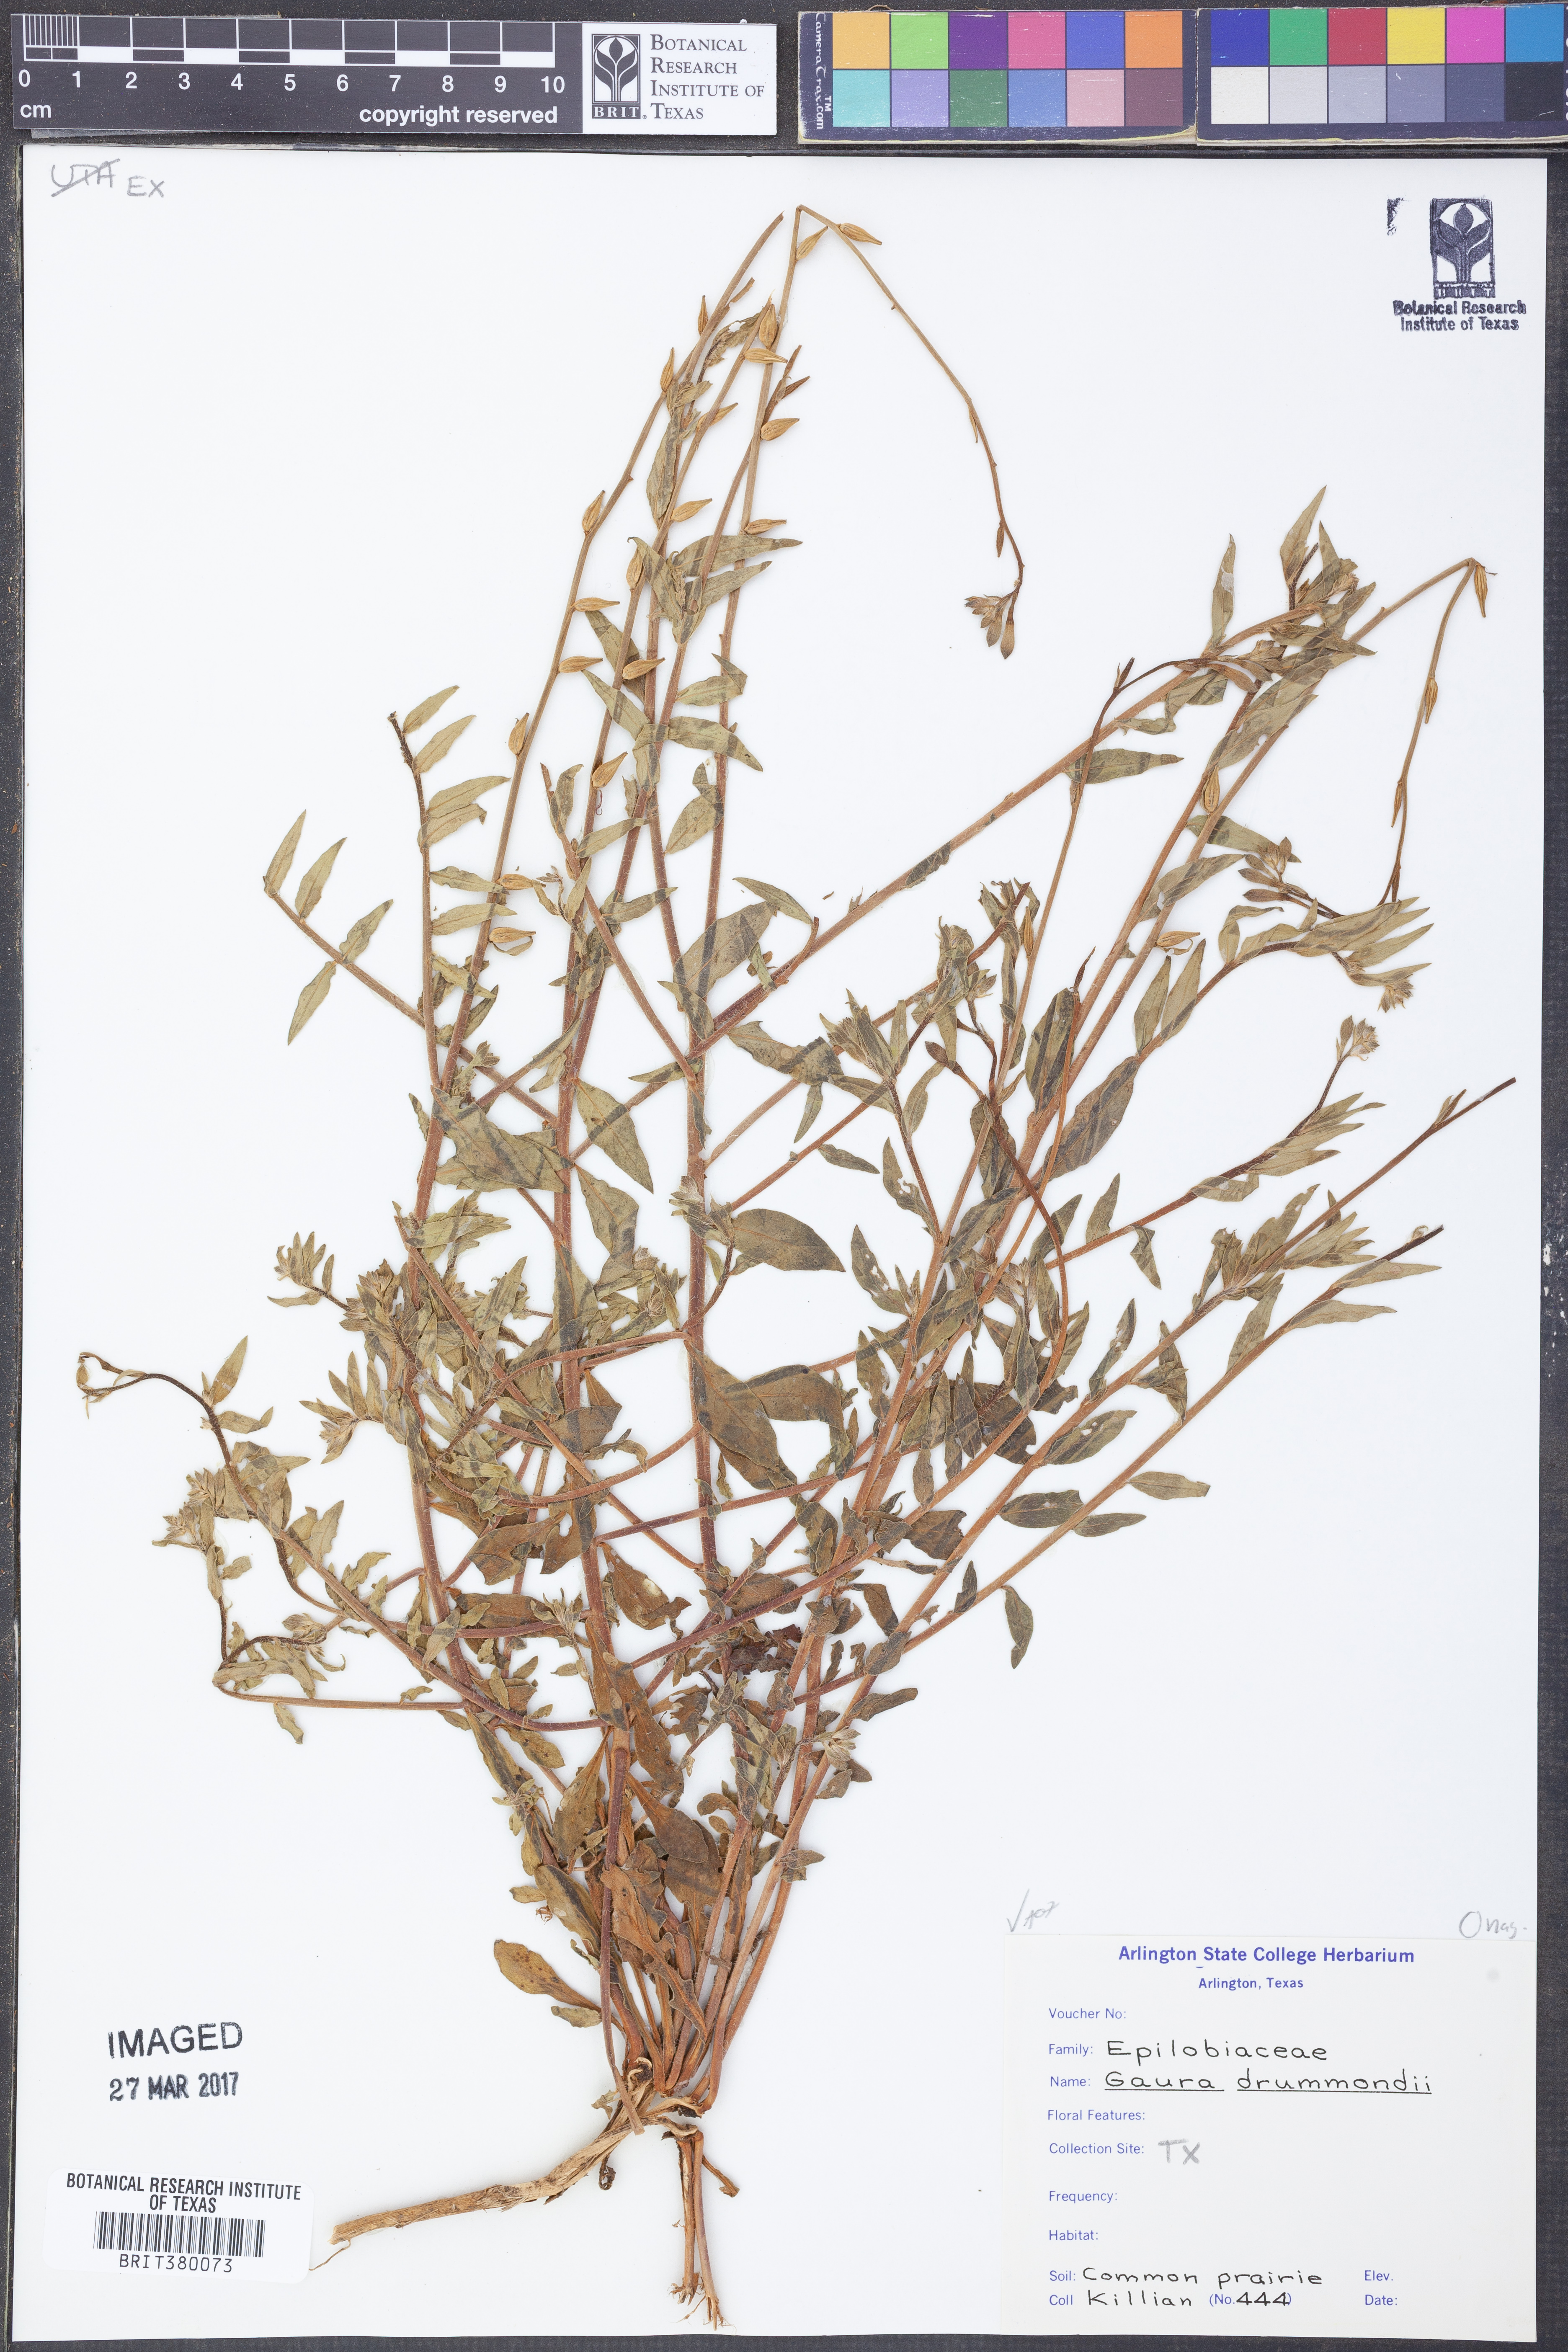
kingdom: Plantae
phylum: Tracheophyta
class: Magnoliopsida
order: Myrtales
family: Onagraceae
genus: Oenothera
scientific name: Oenothera hispida
